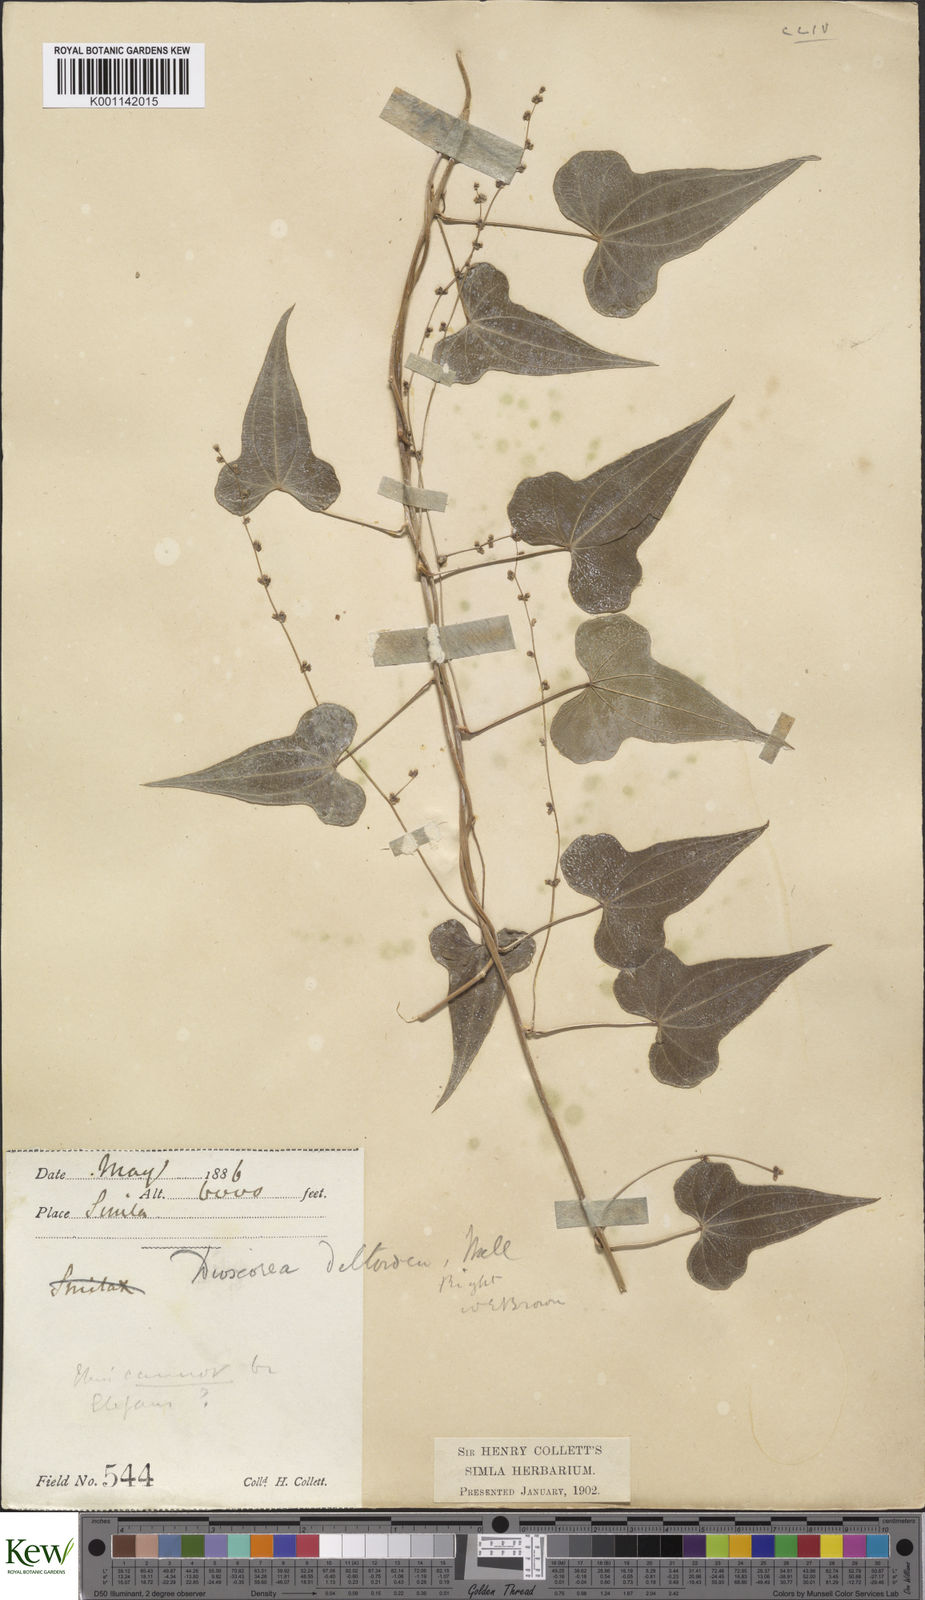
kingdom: Plantae
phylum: Tracheophyta
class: Liliopsida
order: Dioscoreales
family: Dioscoreaceae
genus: Dioscorea
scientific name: Dioscorea deltoidea
